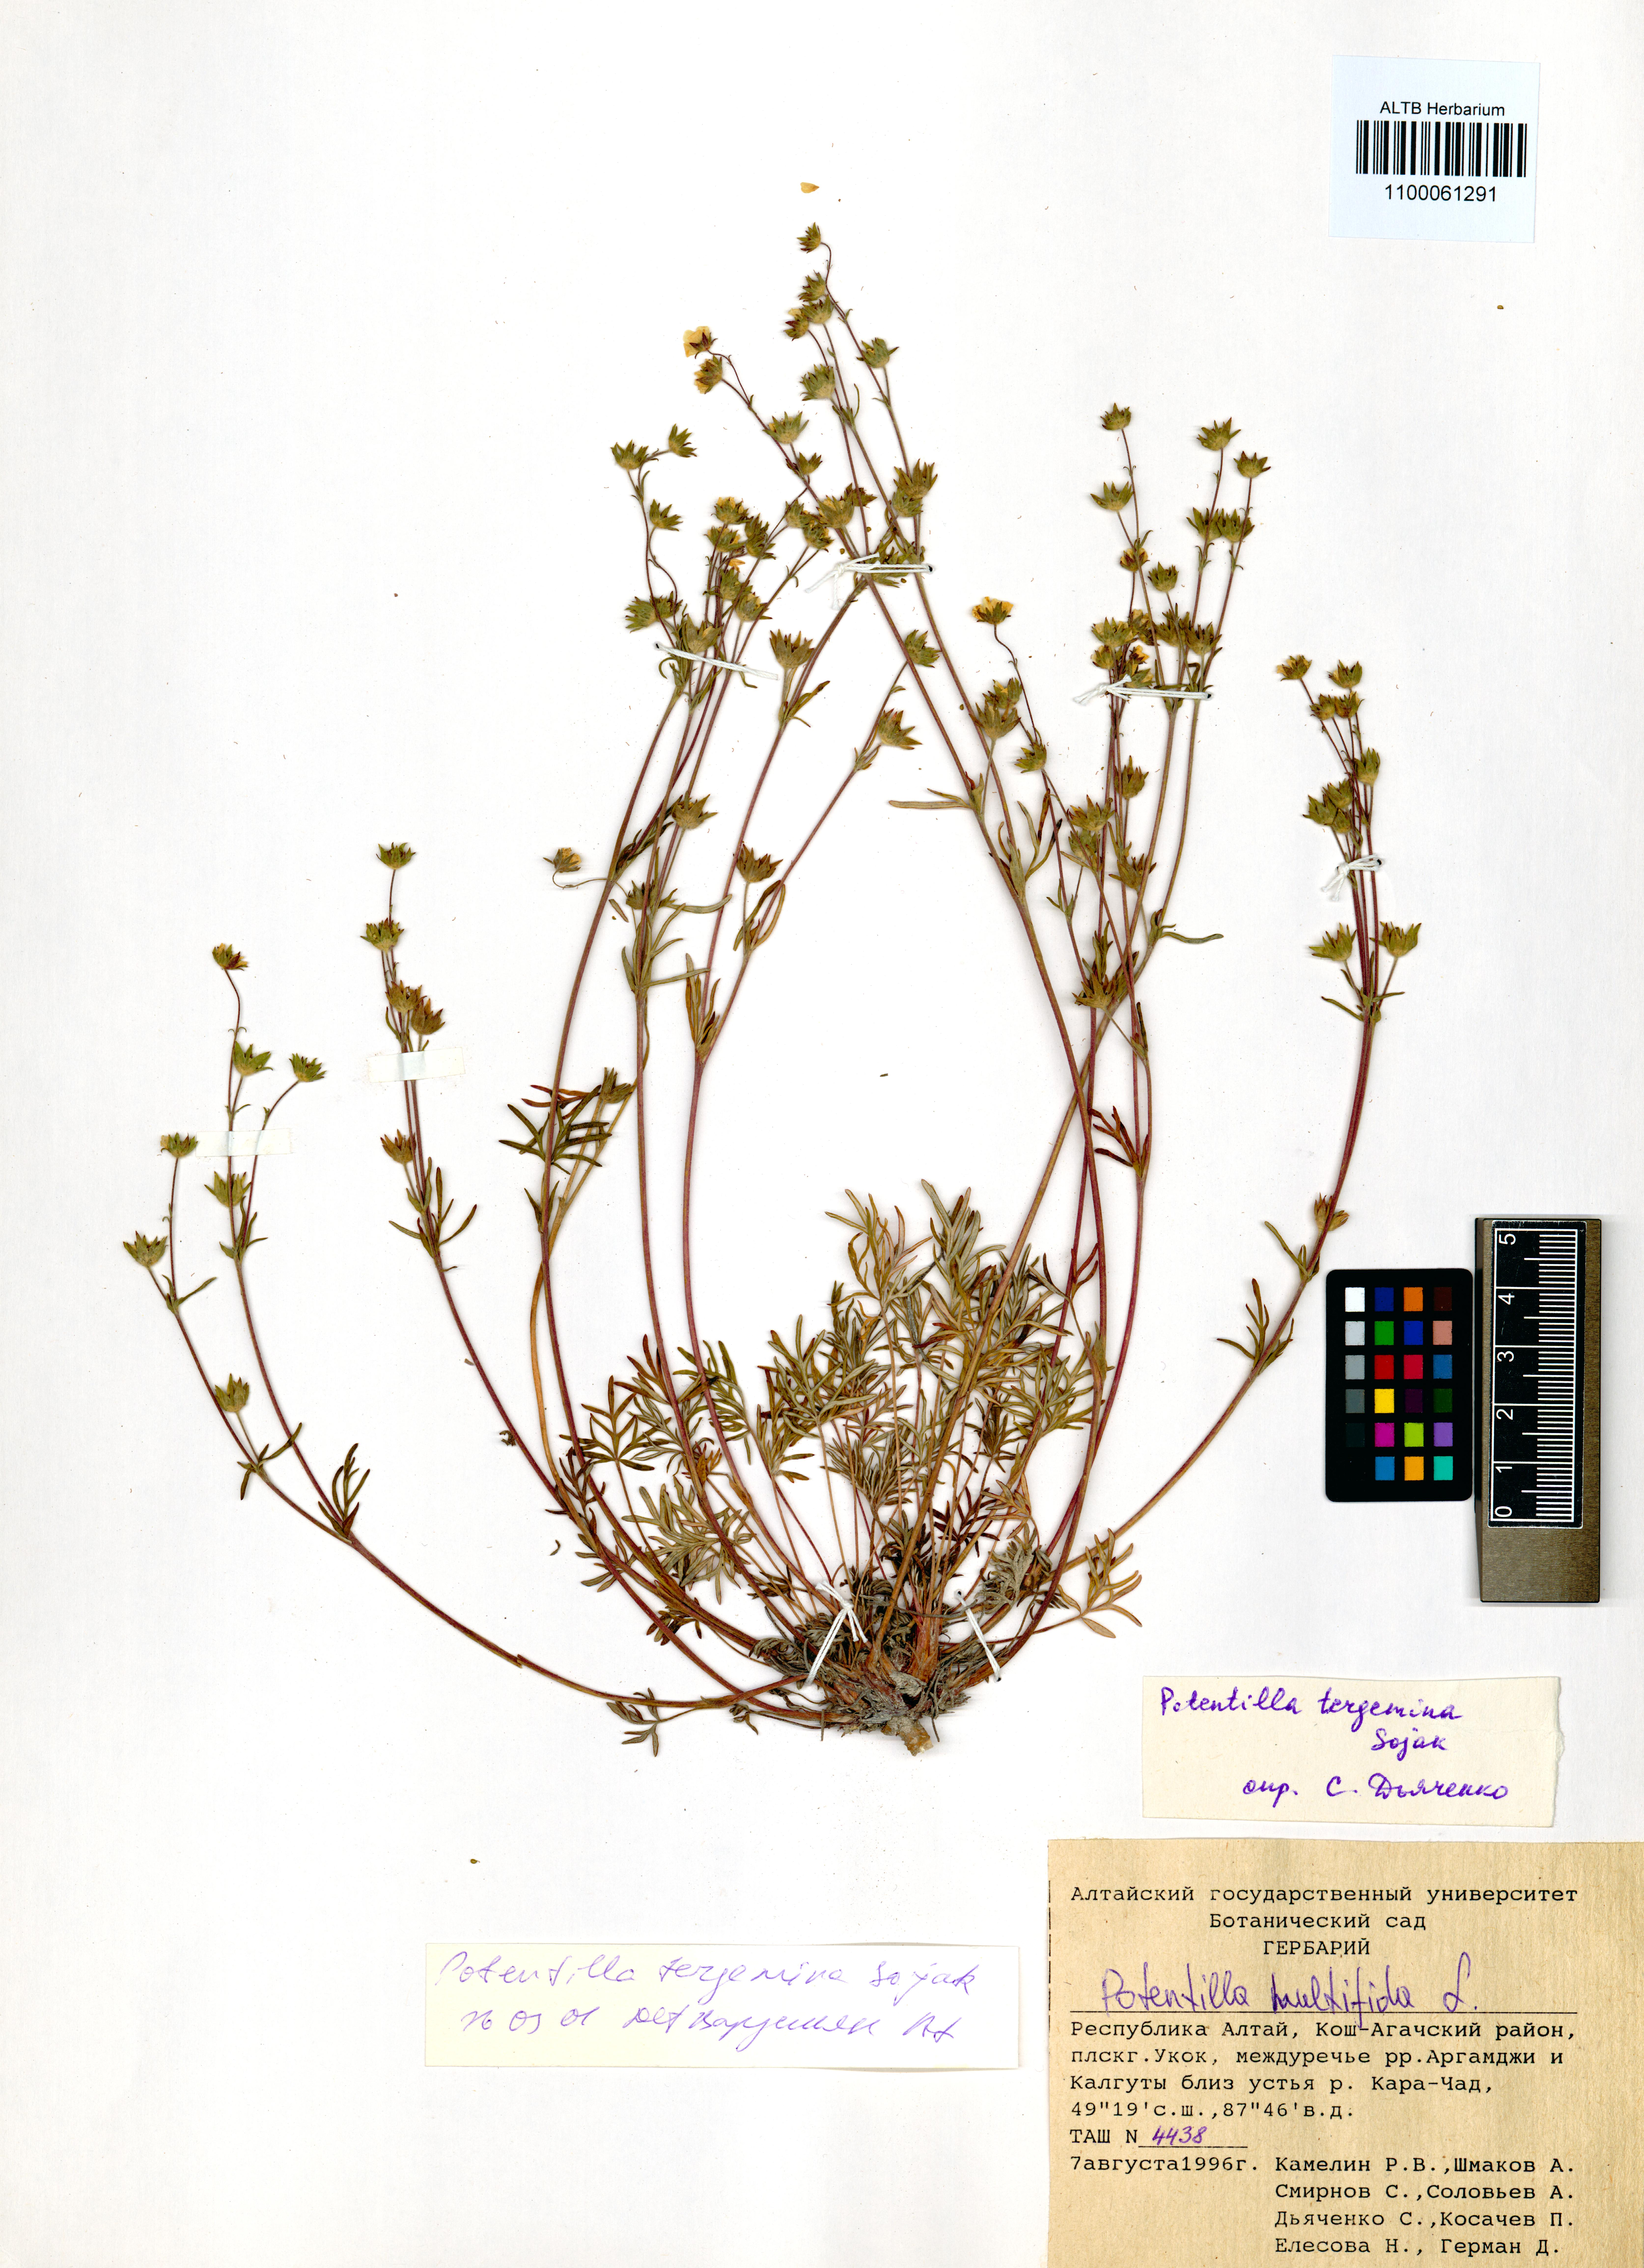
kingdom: Plantae
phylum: Tracheophyta
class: Magnoliopsida
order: Rosales
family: Rosaceae
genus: Potentilla
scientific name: Potentilla tergemina
